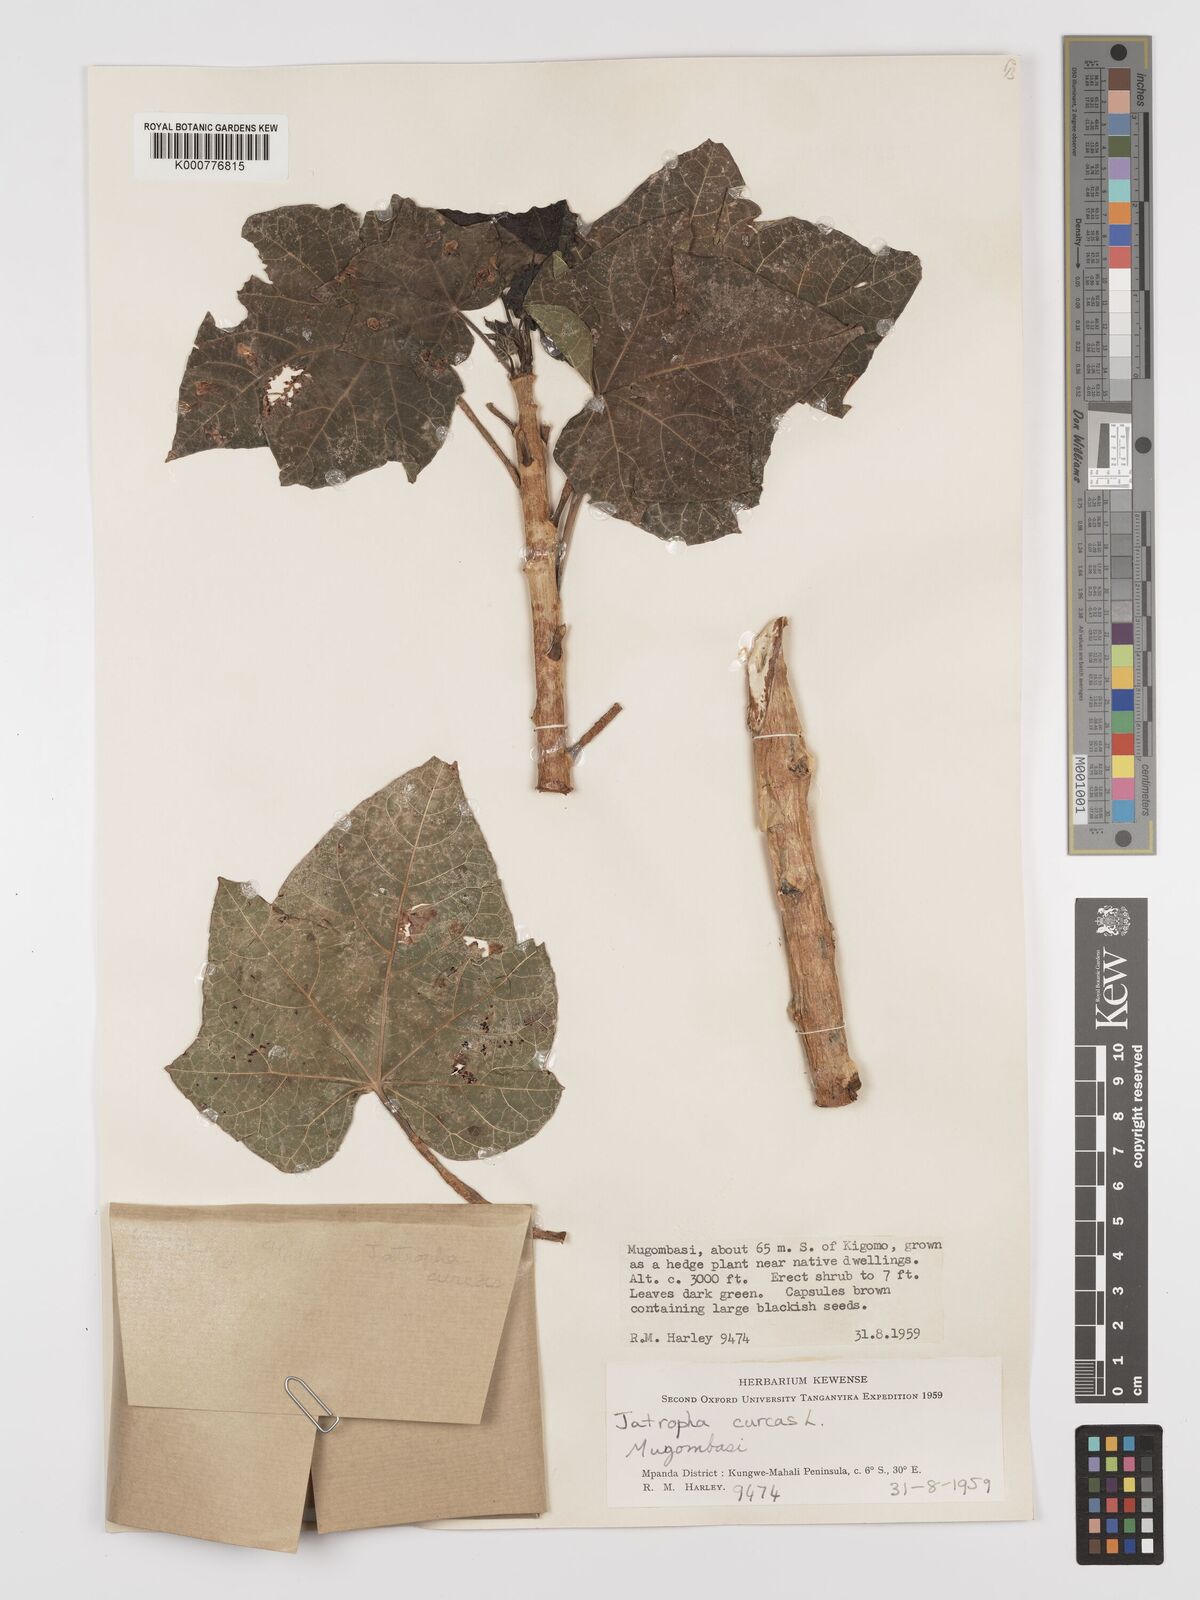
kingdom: Plantae
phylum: Tracheophyta
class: Magnoliopsida
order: Malpighiales
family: Euphorbiaceae
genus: Jatropha
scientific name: Jatropha curcas
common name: Barbados nut
